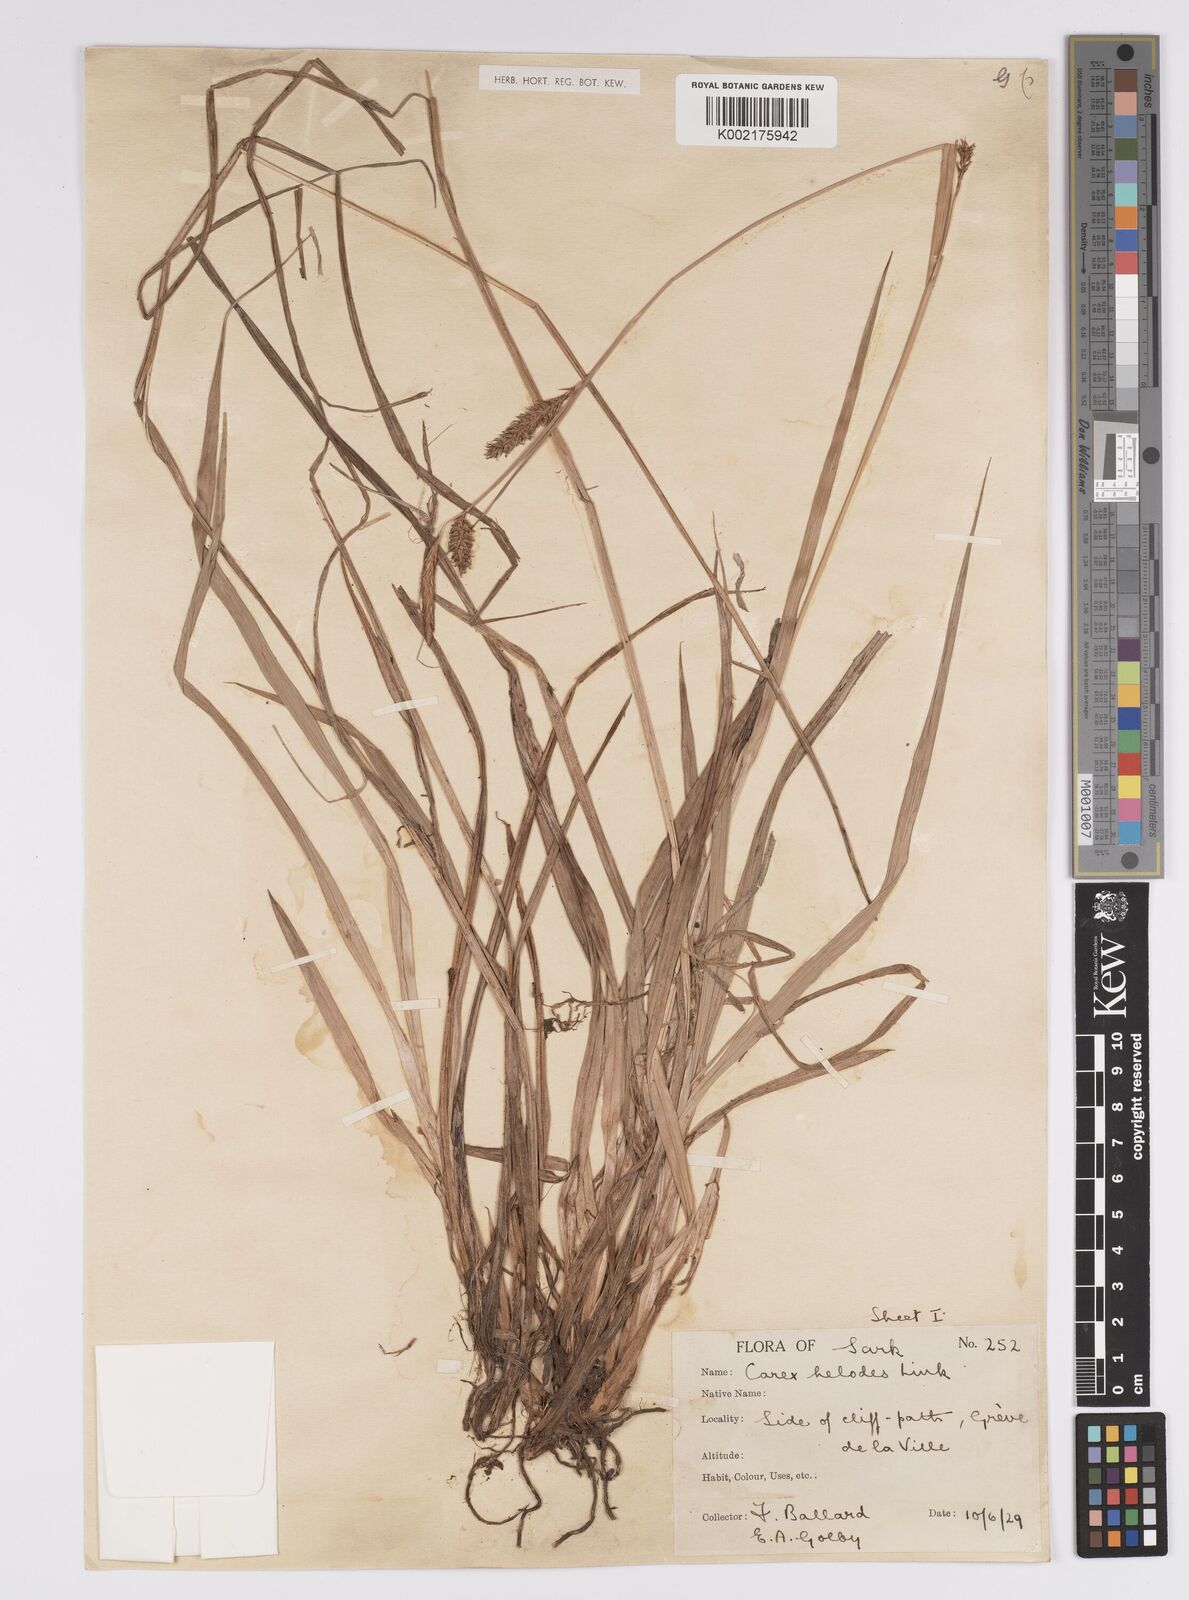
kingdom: Plantae
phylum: Tracheophyta
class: Liliopsida
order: Poales
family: Cyperaceae
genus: Carex
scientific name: Carex laevigata
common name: Smooth-stalked sedge
